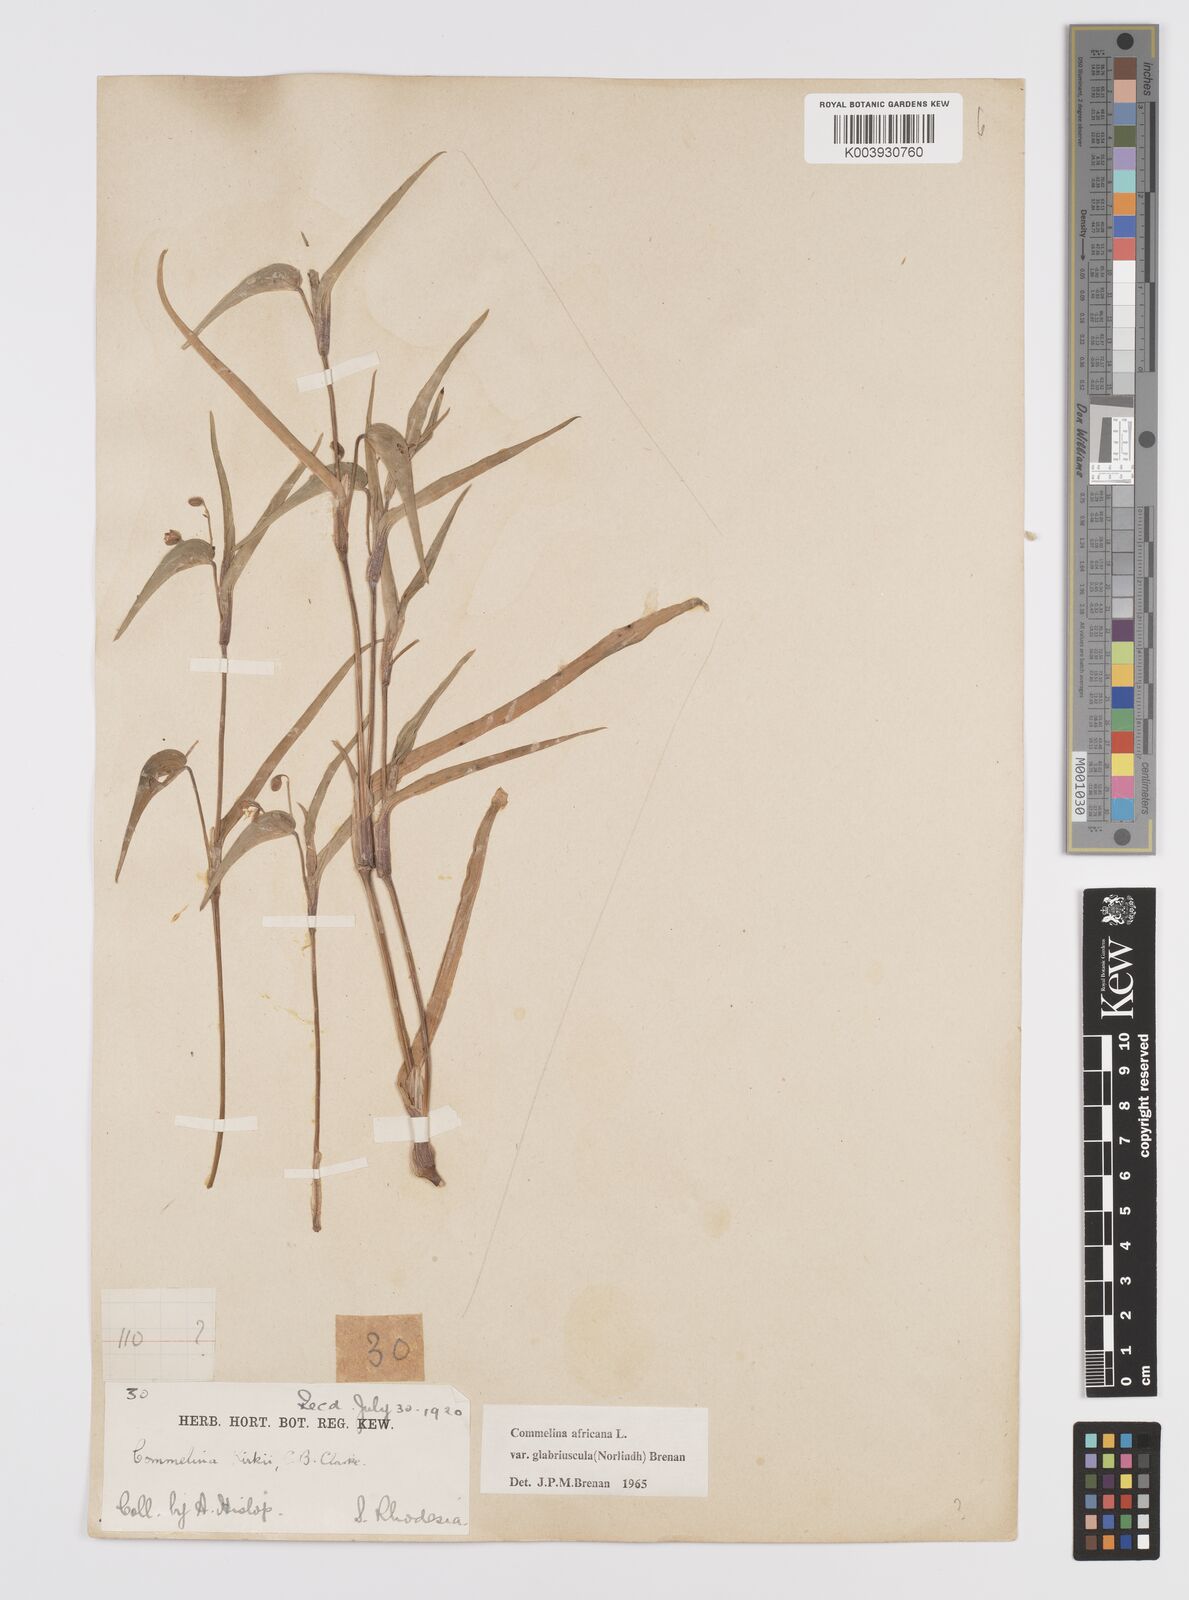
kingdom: Plantae
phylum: Tracheophyta
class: Liliopsida
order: Commelinales
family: Commelinaceae
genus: Commelina
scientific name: Commelina africana
